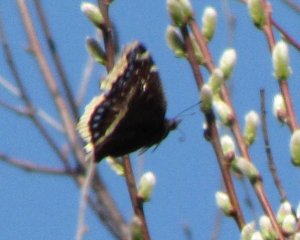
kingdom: Animalia
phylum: Arthropoda
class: Insecta
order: Lepidoptera
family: Nymphalidae
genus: Nymphalis
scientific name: Nymphalis antiopa
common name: Mourning Cloak
